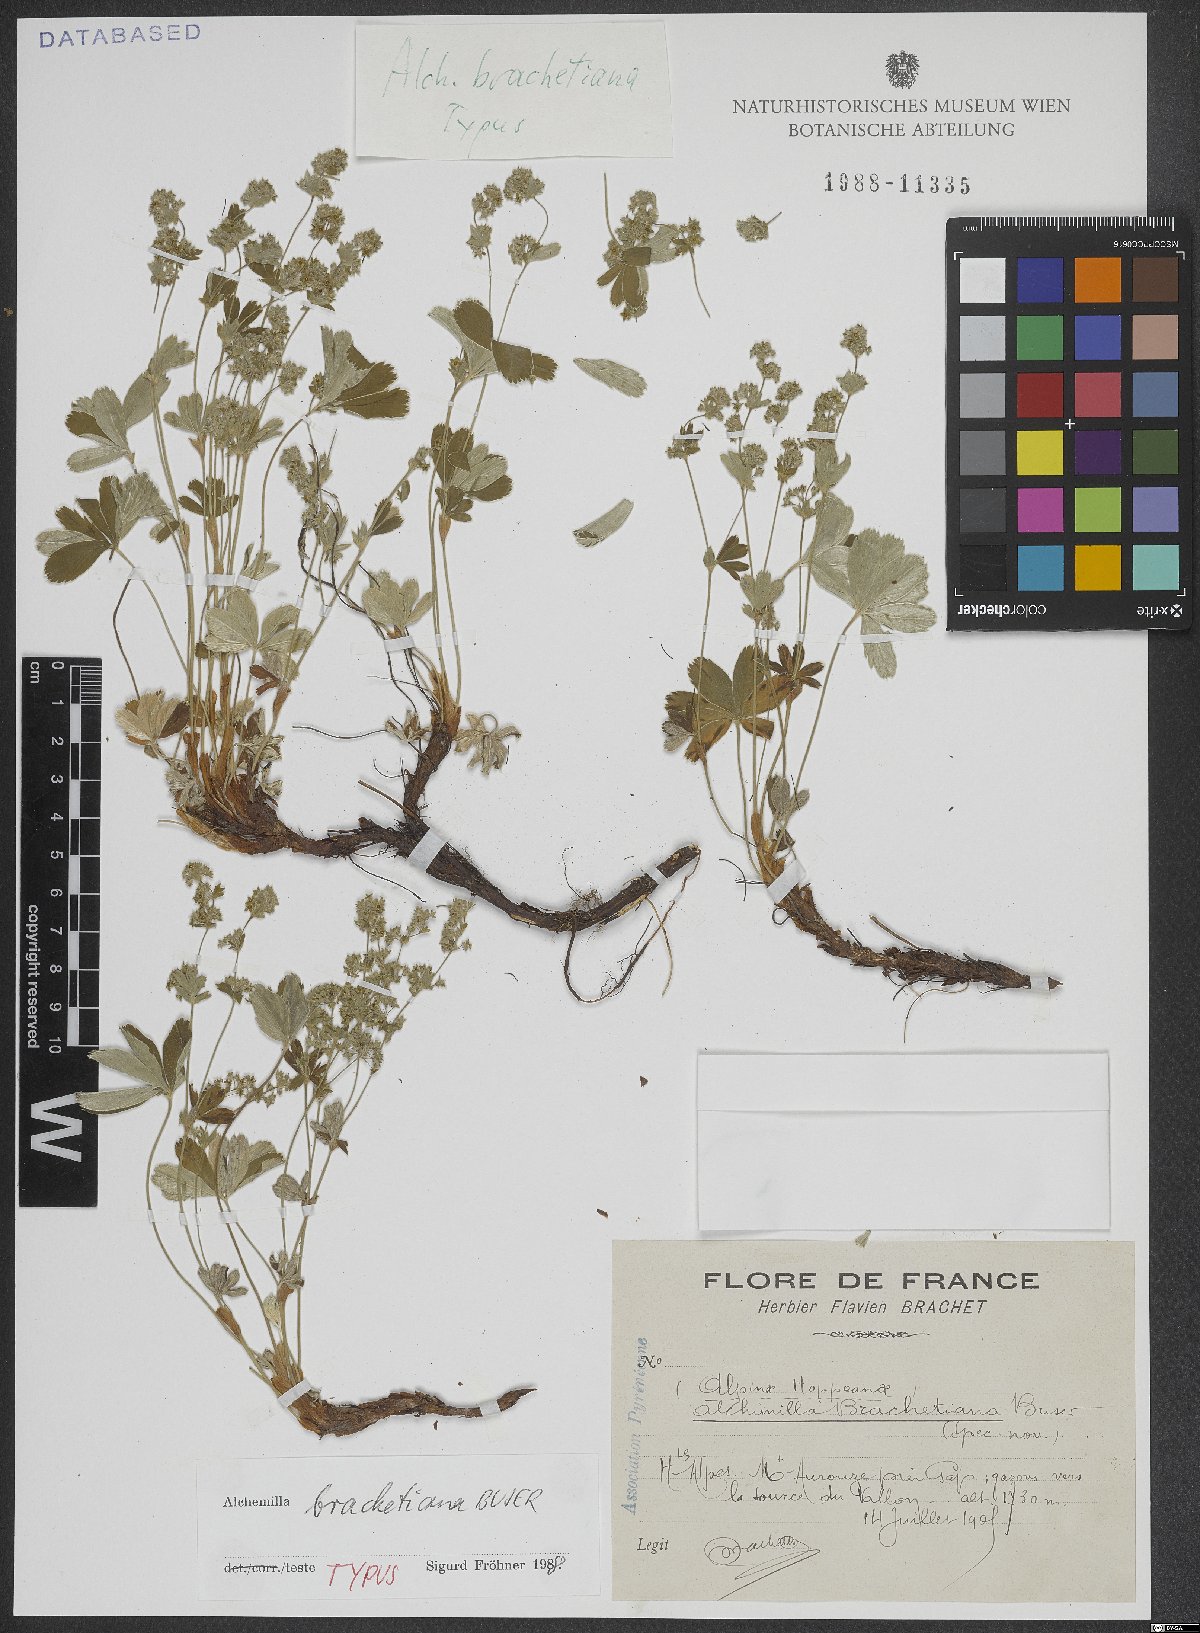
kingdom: Plantae
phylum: Tracheophyta
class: Magnoliopsida
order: Rosales
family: Rosaceae
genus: Alchemilla
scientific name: Alchemilla brachetiana
